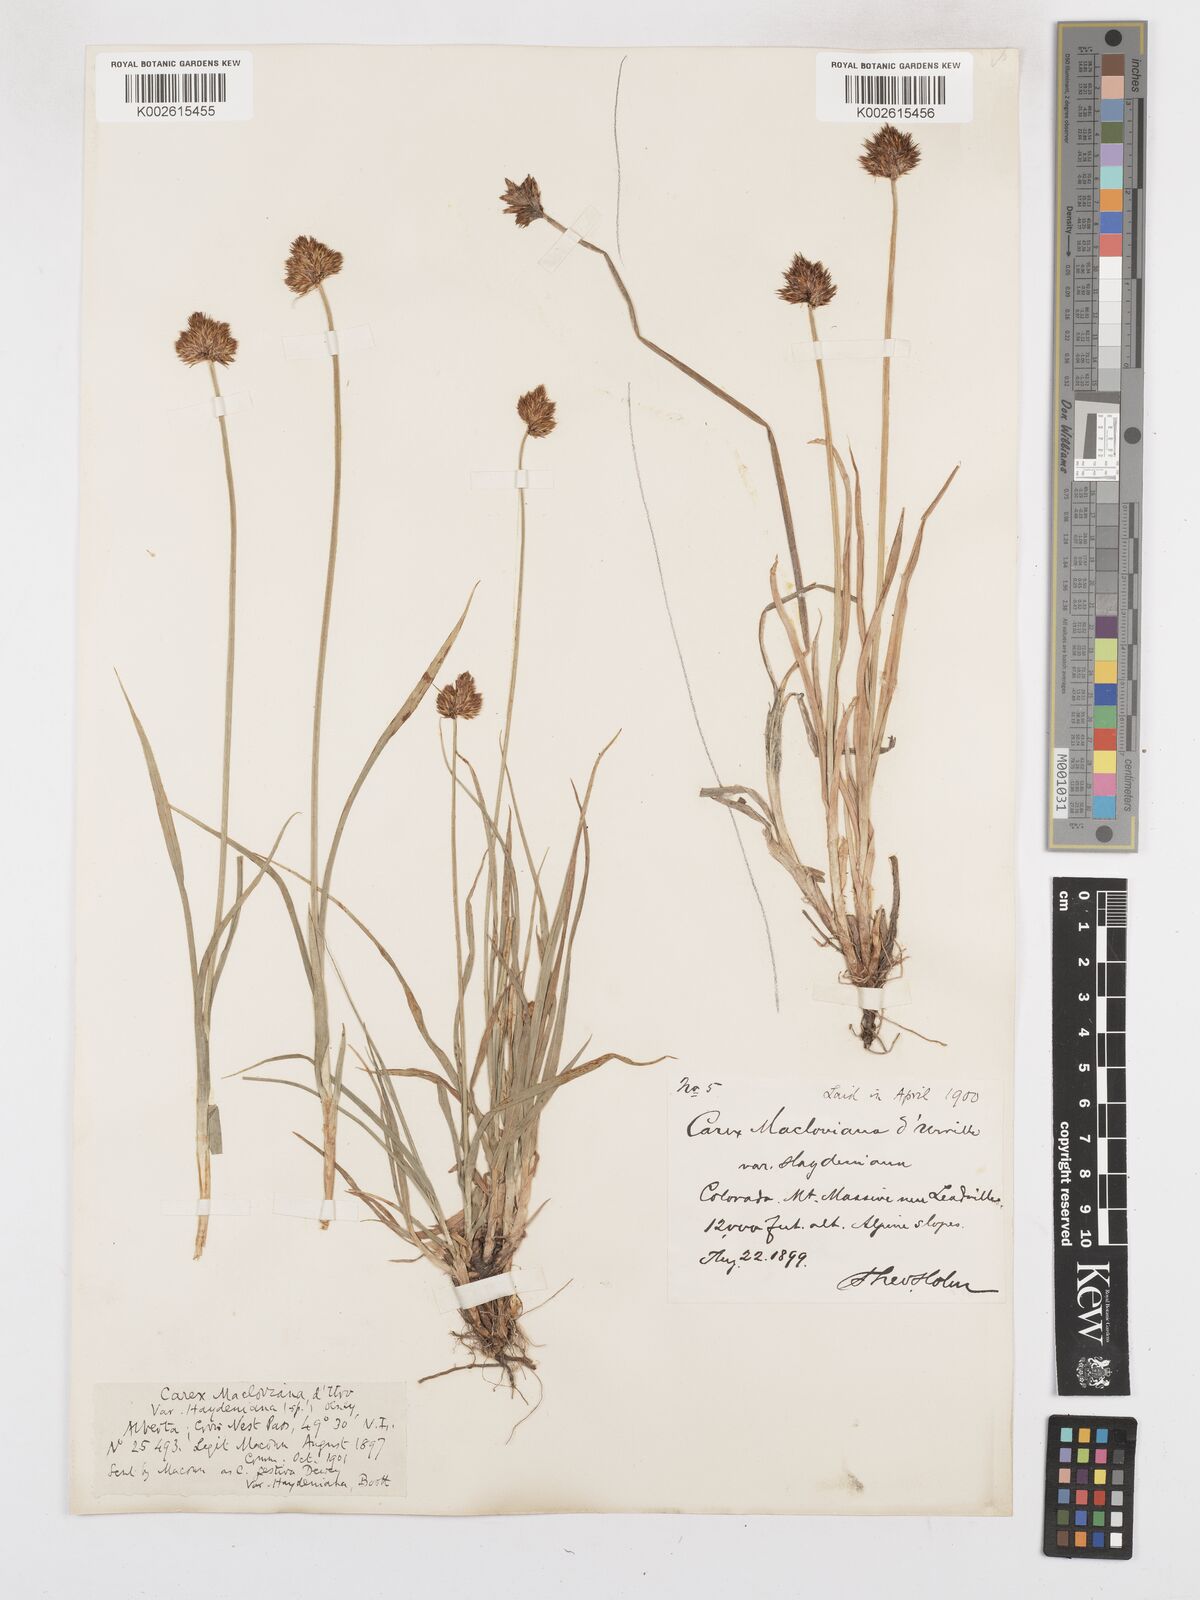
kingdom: Plantae
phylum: Tracheophyta
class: Liliopsida
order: Poales
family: Cyperaceae
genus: Carex
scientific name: Carex haydeniana
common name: Cloud sedge
